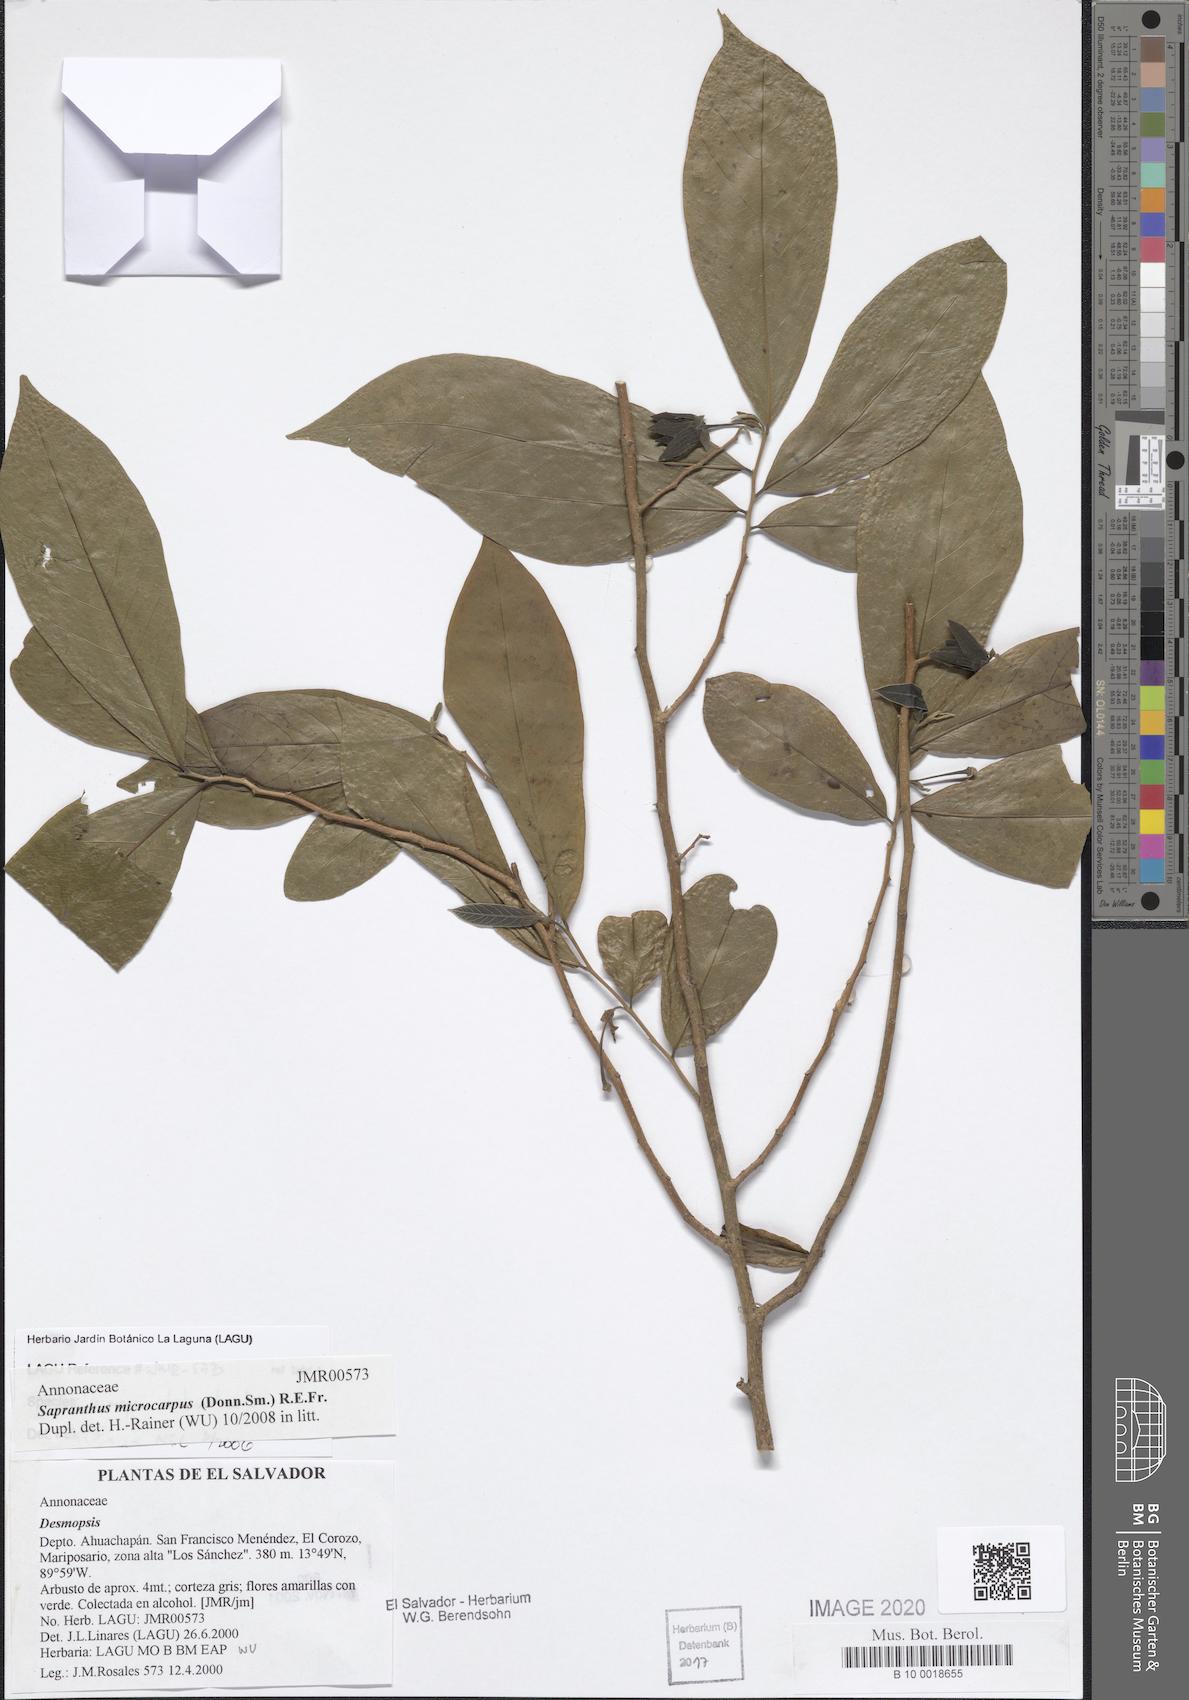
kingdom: Plantae
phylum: Tracheophyta
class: Magnoliopsida
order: Magnoliales
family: Annonaceae
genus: Sapranthus
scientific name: Sapranthus microcarpus
